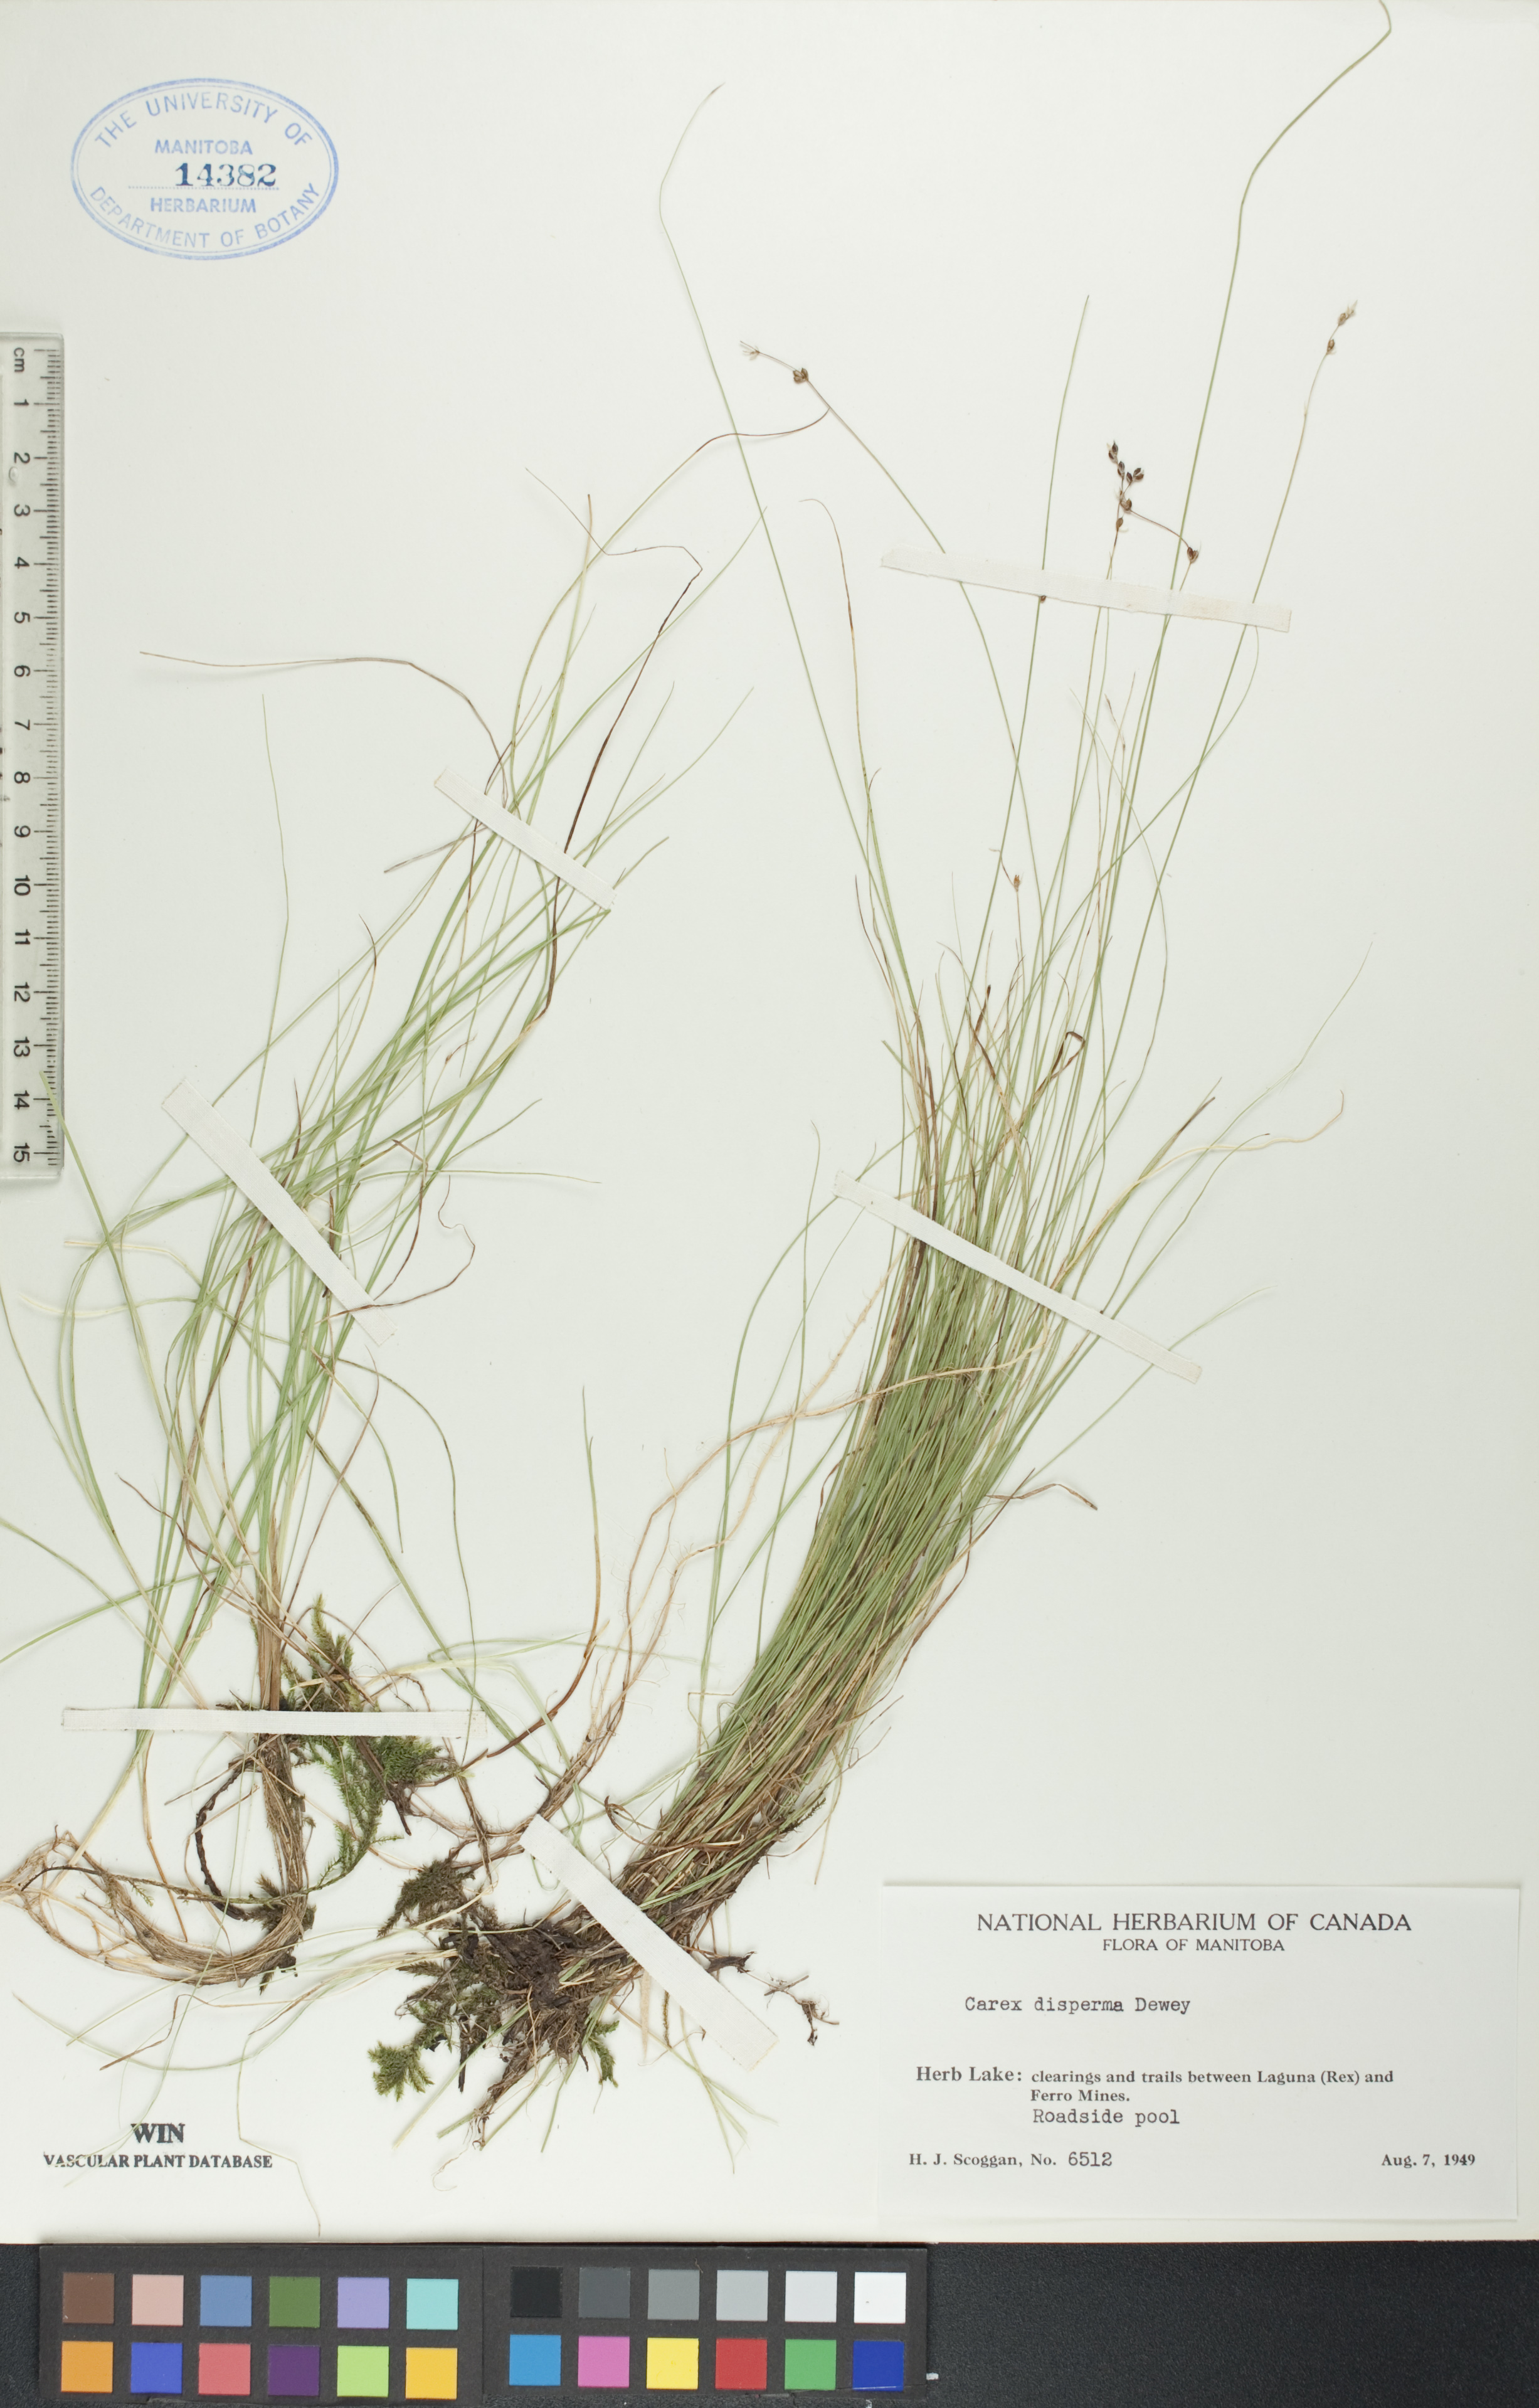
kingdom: Plantae
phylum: Tracheophyta
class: Liliopsida
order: Poales
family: Cyperaceae
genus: Carex
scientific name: Carex disperma
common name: Short-leaved sedge
